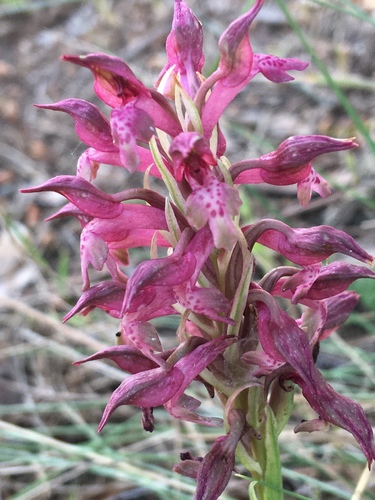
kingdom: Plantae
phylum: Tracheophyta
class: Liliopsida
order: Asparagales
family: Orchidaceae
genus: Anacamptis
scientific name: Anacamptis coriophora
